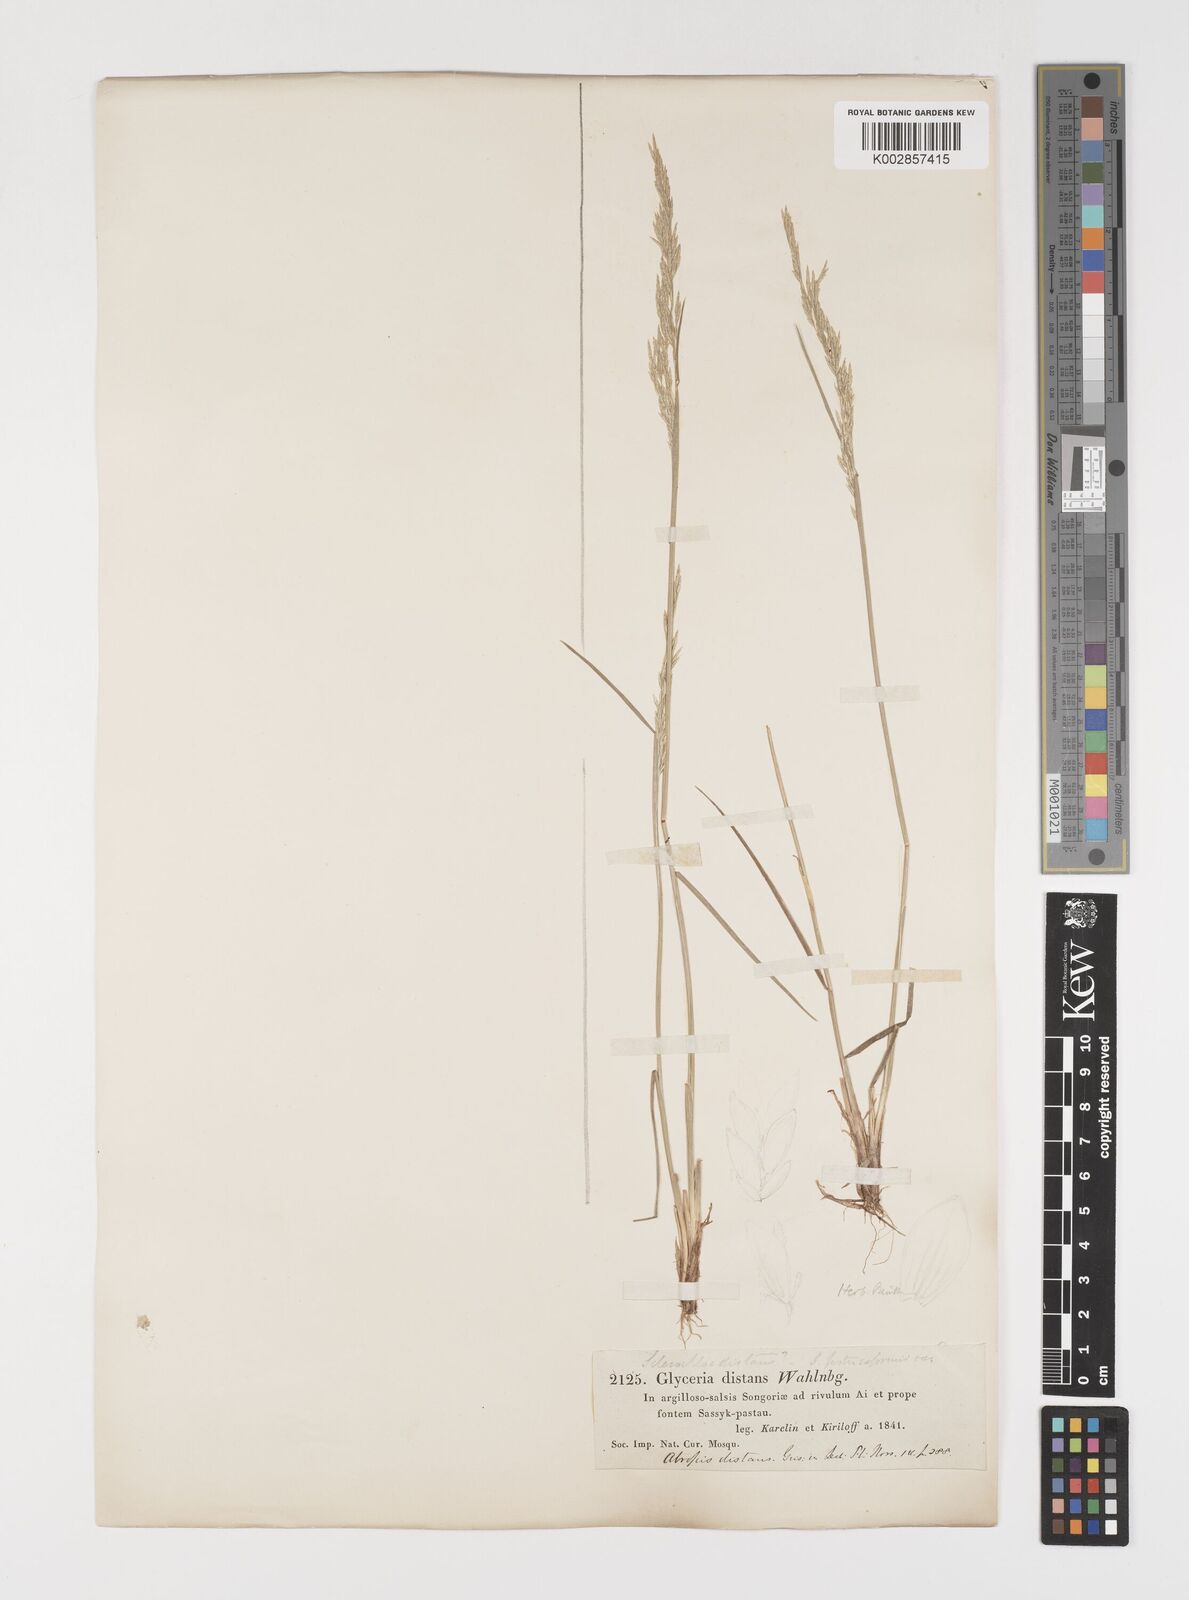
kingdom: Plantae
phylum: Tracheophyta
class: Liliopsida
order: Poales
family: Poaceae
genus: Puccinellia
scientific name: Puccinellia distans
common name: Weeping alkaligrass
